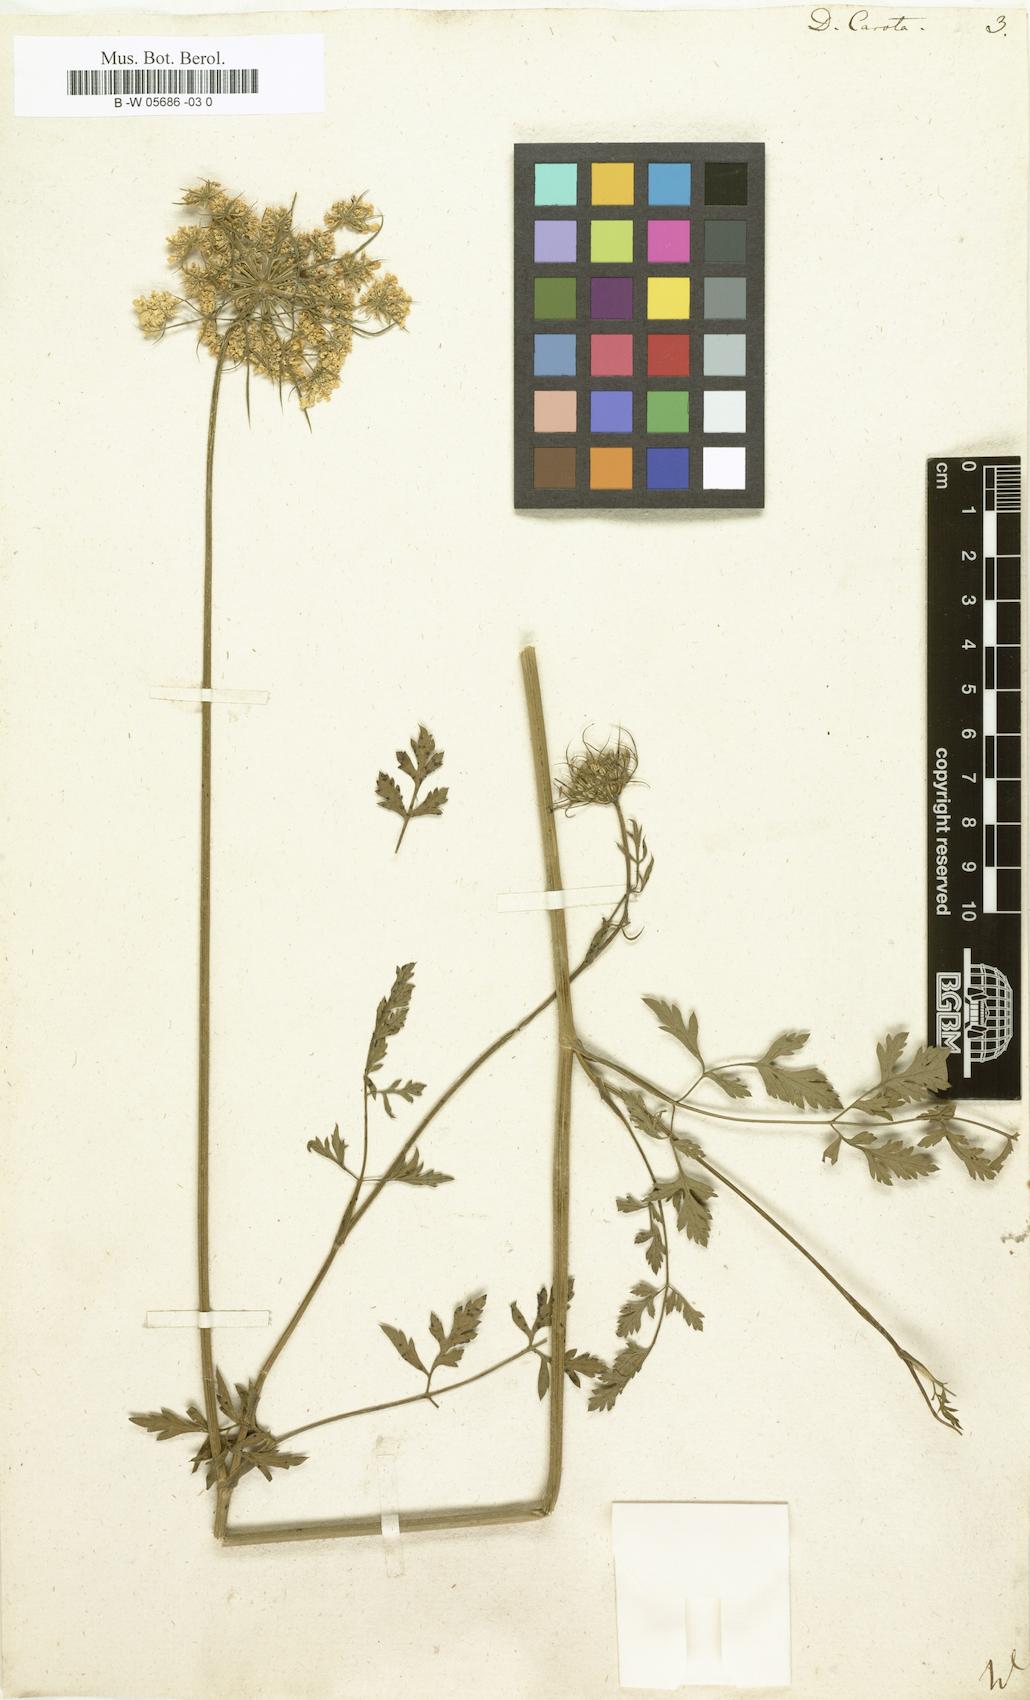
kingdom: Plantae
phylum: Tracheophyta
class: Magnoliopsida
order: Apiales
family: Apiaceae
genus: Daucus
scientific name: Daucus carota
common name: Wild carrot
